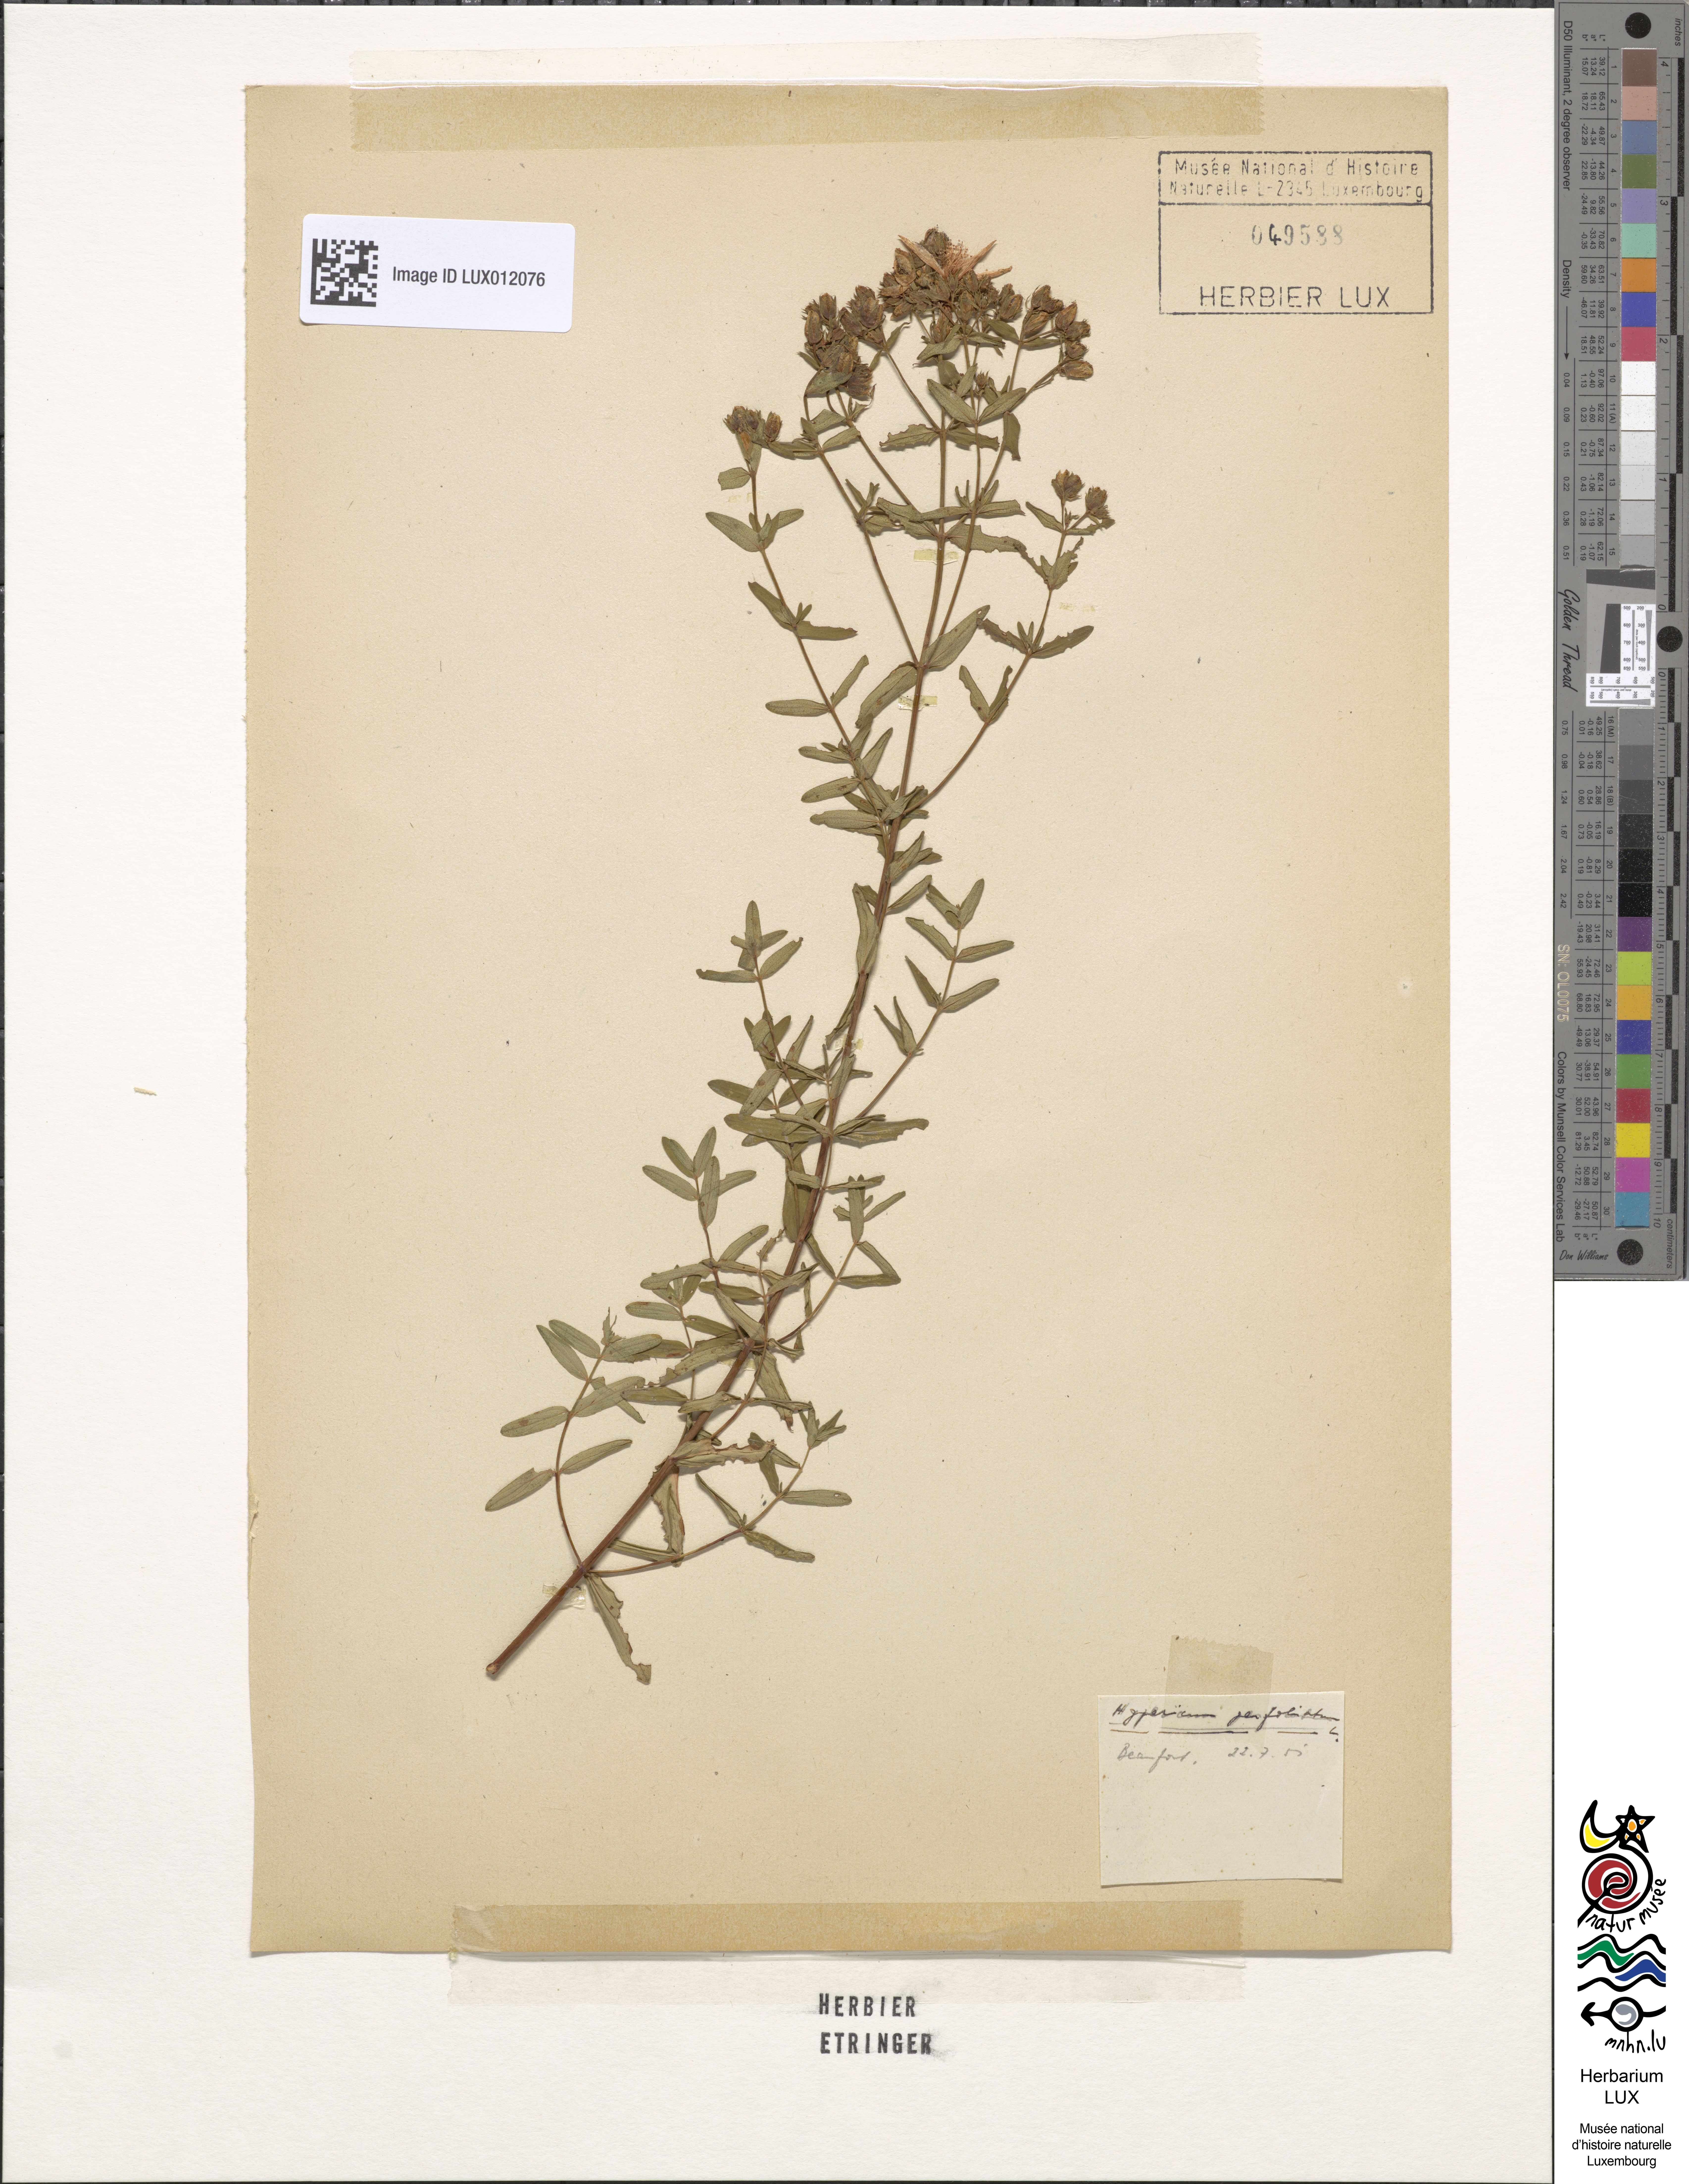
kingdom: Plantae
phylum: Tracheophyta
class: Magnoliopsida
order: Malpighiales
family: Hypericaceae
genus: Hypericum
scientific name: Hypericum perforatum
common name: Common st. johnswort
